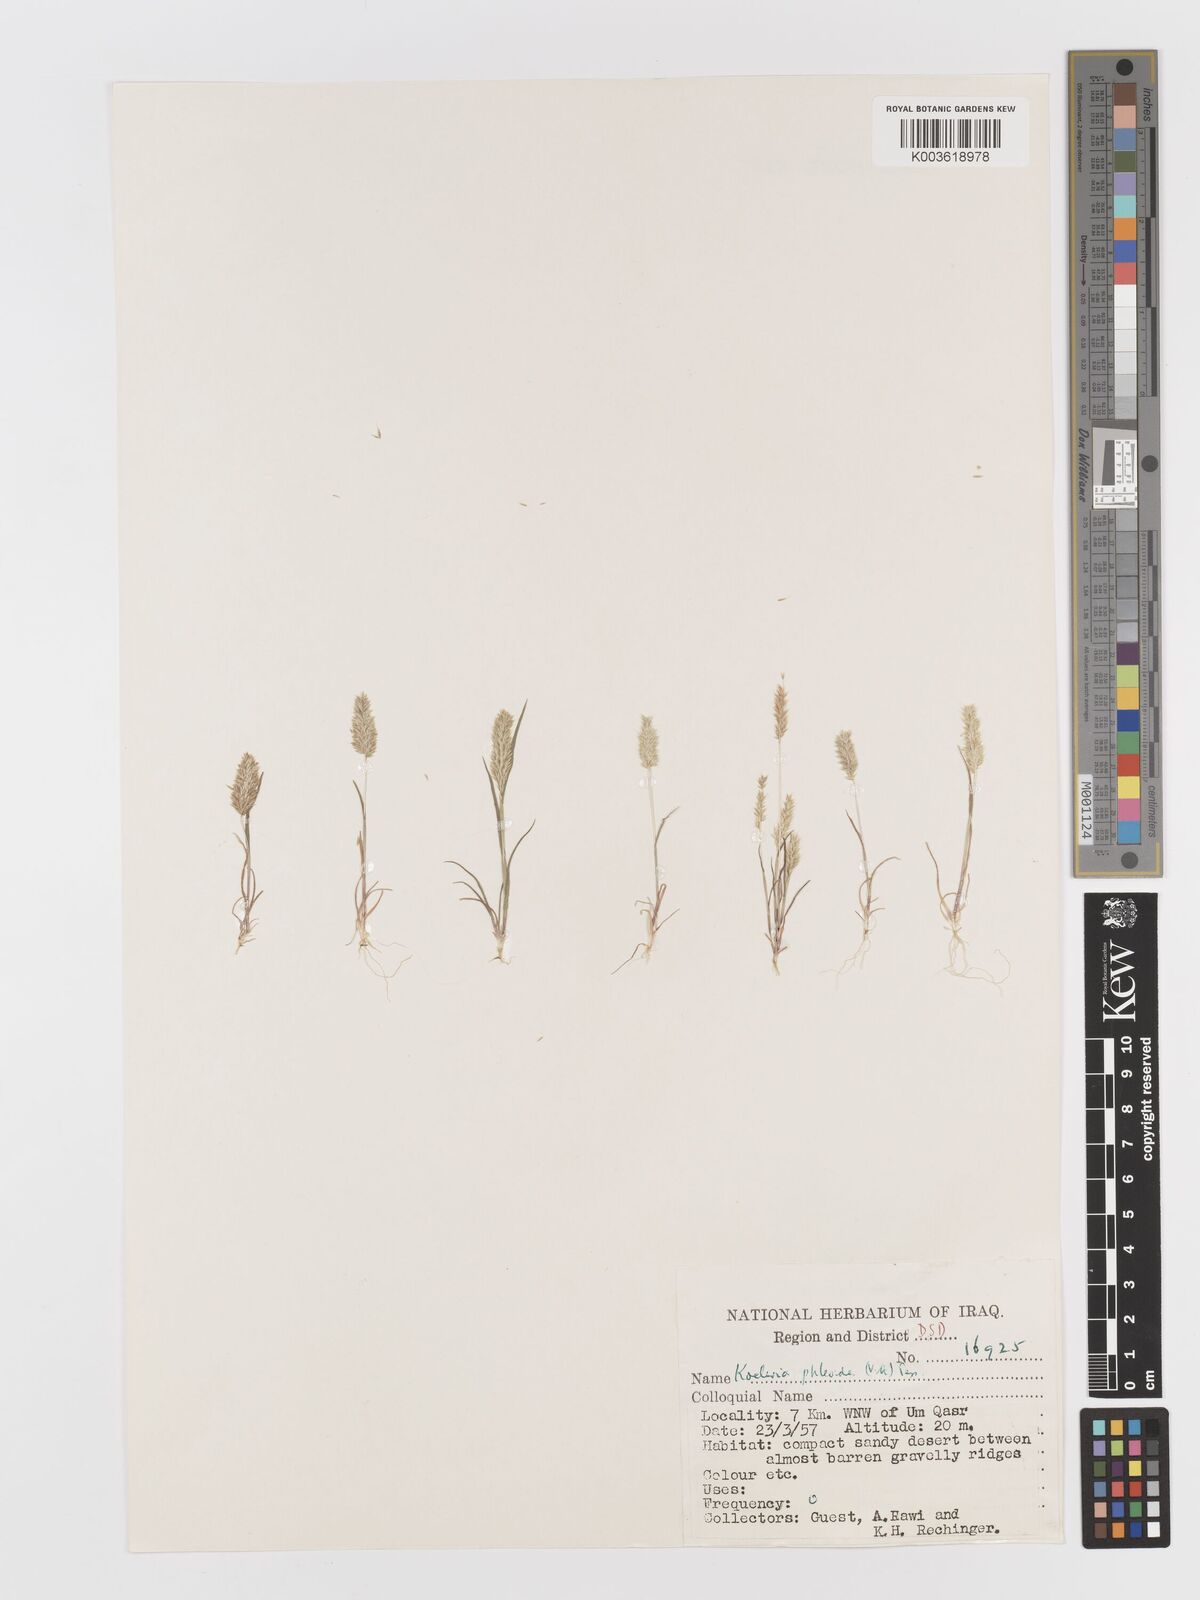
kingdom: Plantae
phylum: Tracheophyta
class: Liliopsida
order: Poales
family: Poaceae
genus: Rostraria
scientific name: Rostraria cristata
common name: Mediterranean hair-grass
